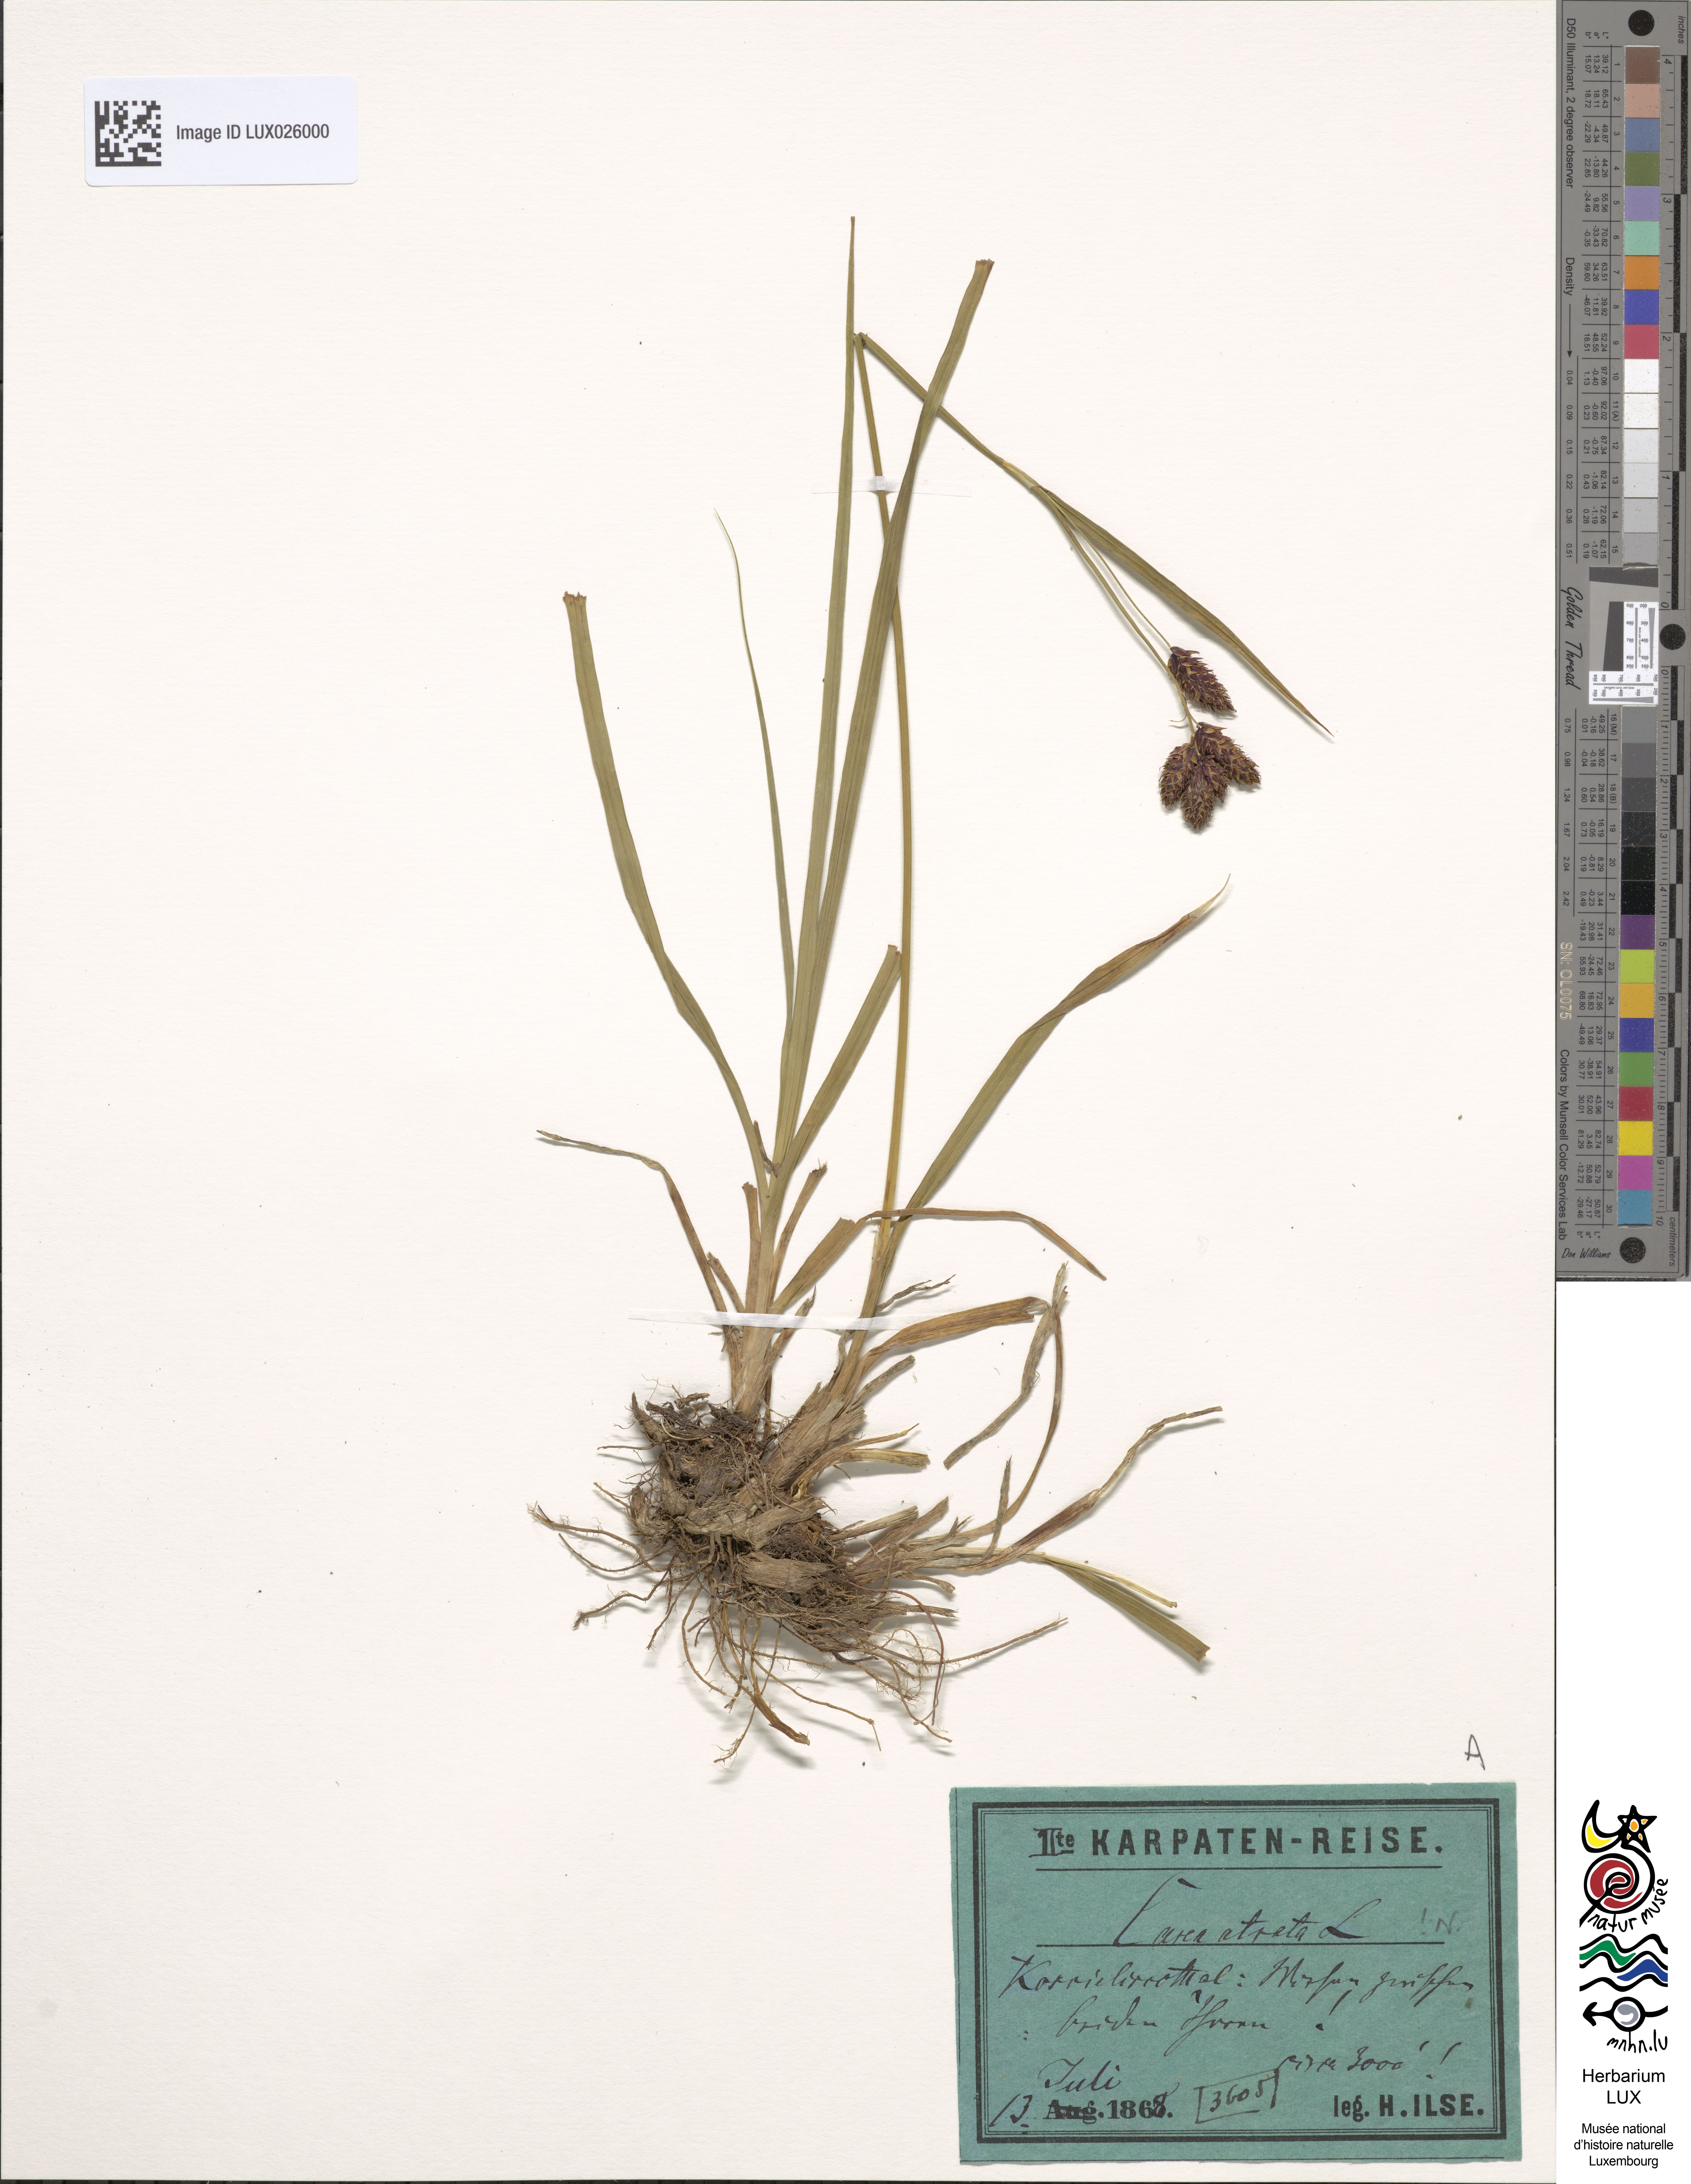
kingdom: Plantae
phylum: Tracheophyta
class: Liliopsida
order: Poales
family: Cyperaceae
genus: Carex
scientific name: Carex atrata
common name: Black alpine sedge
